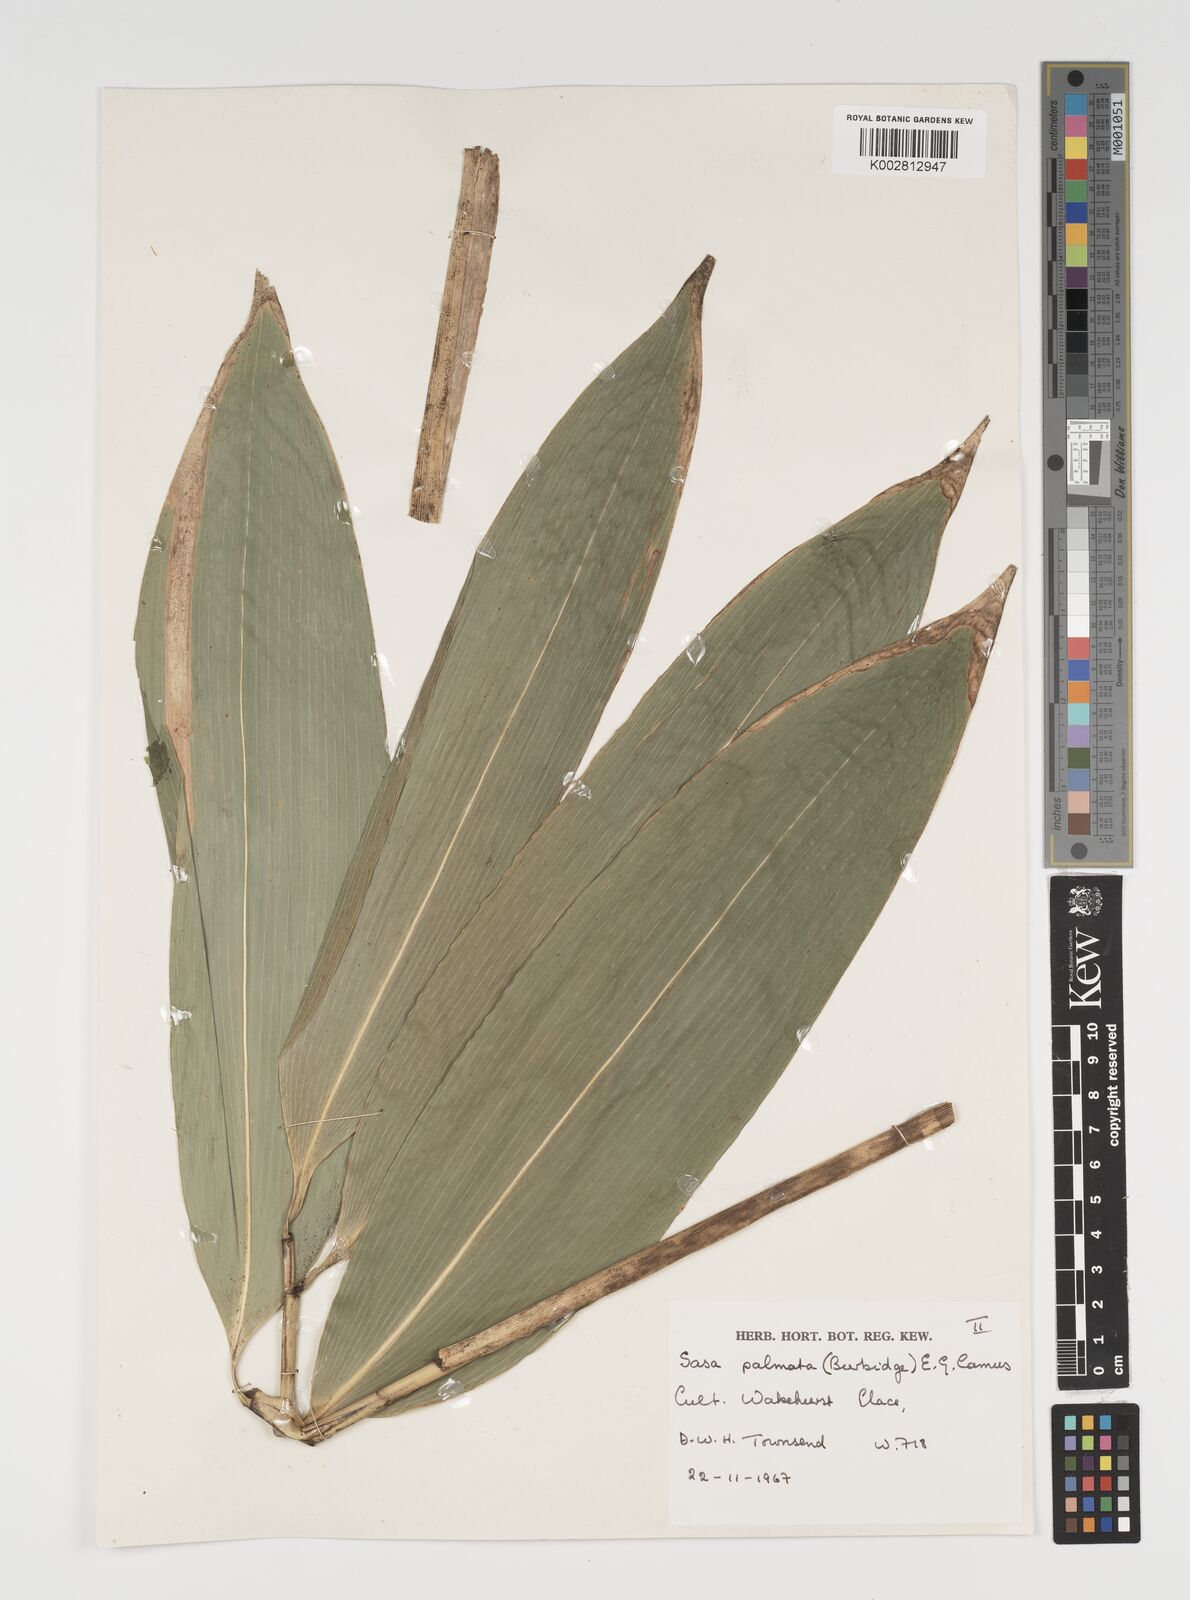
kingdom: Plantae
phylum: Tracheophyta
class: Liliopsida
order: Poales
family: Poaceae
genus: Sasa
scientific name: Sasa palmata
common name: Broad-leaved bamboo
